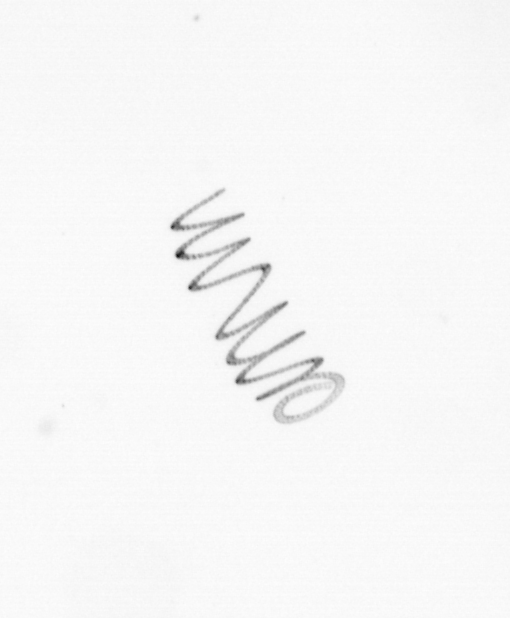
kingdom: Chromista
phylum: Ochrophyta
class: Bacillariophyceae
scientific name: Bacillariophyceae
